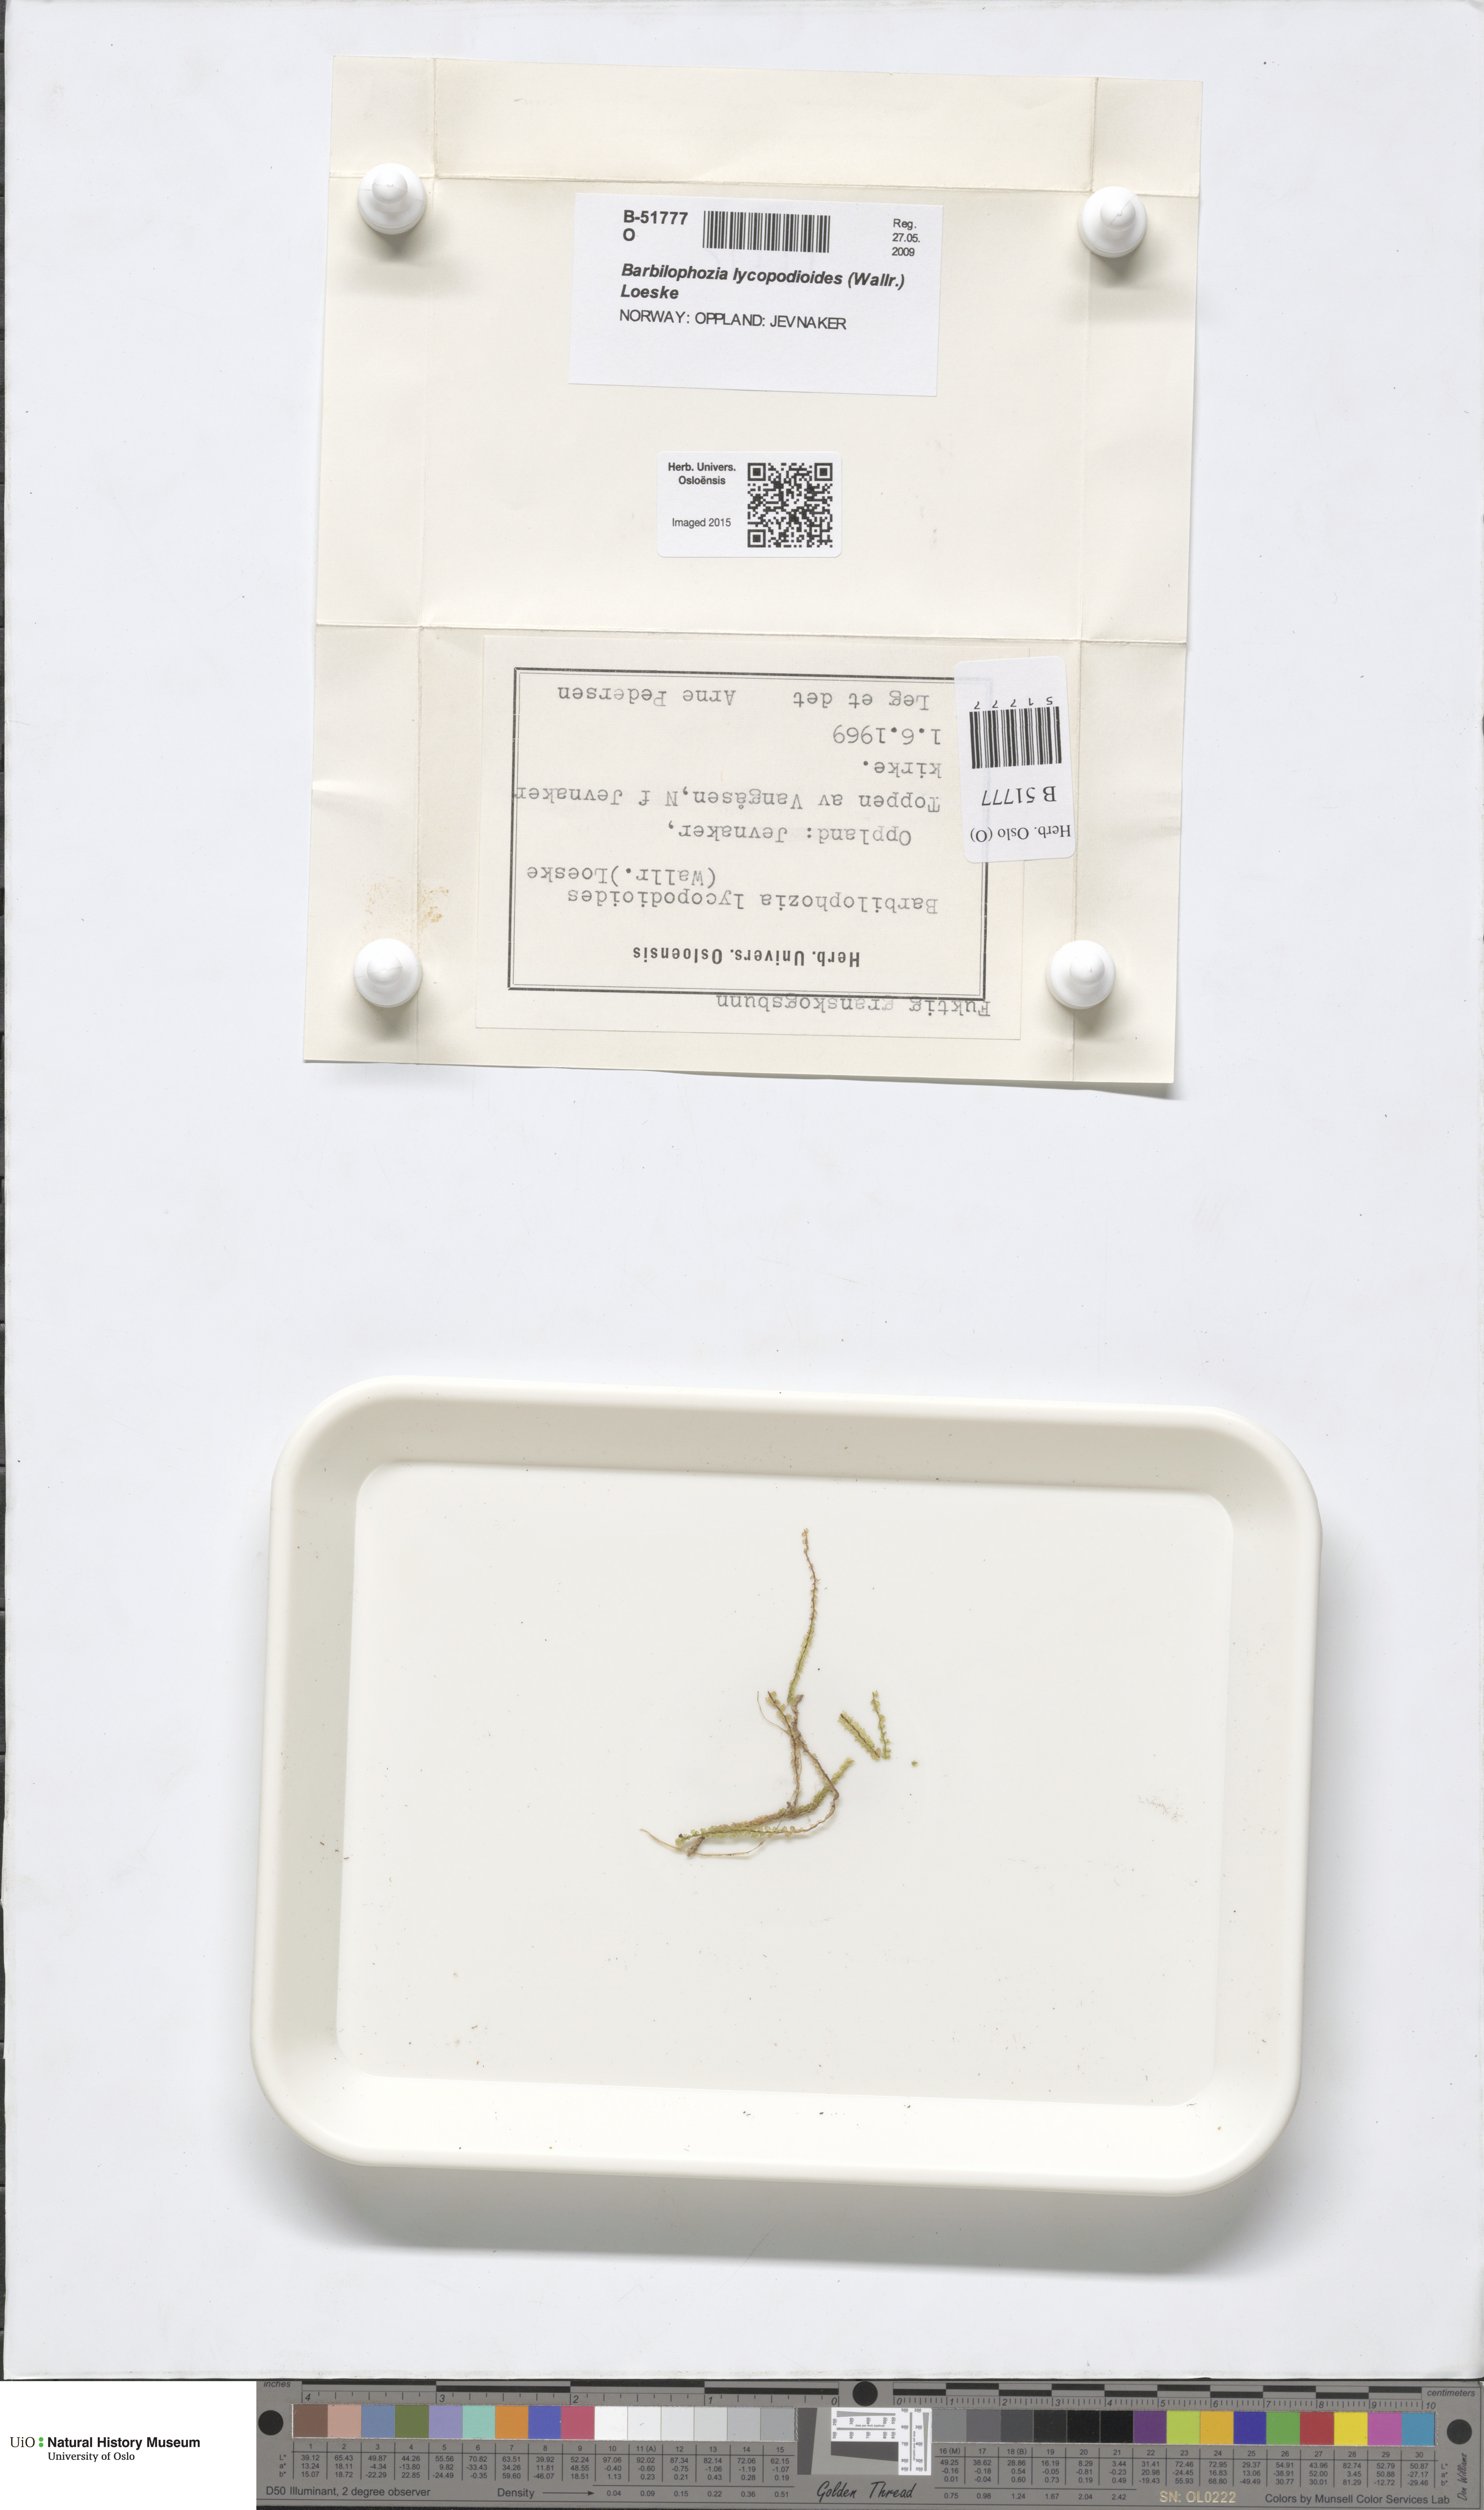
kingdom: Plantae
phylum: Marchantiophyta
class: Jungermanniopsida
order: Jungermanniales
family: Anastrophyllaceae
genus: Barbilophozia
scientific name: Barbilophozia lycopodioides
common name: Greater pawwort
